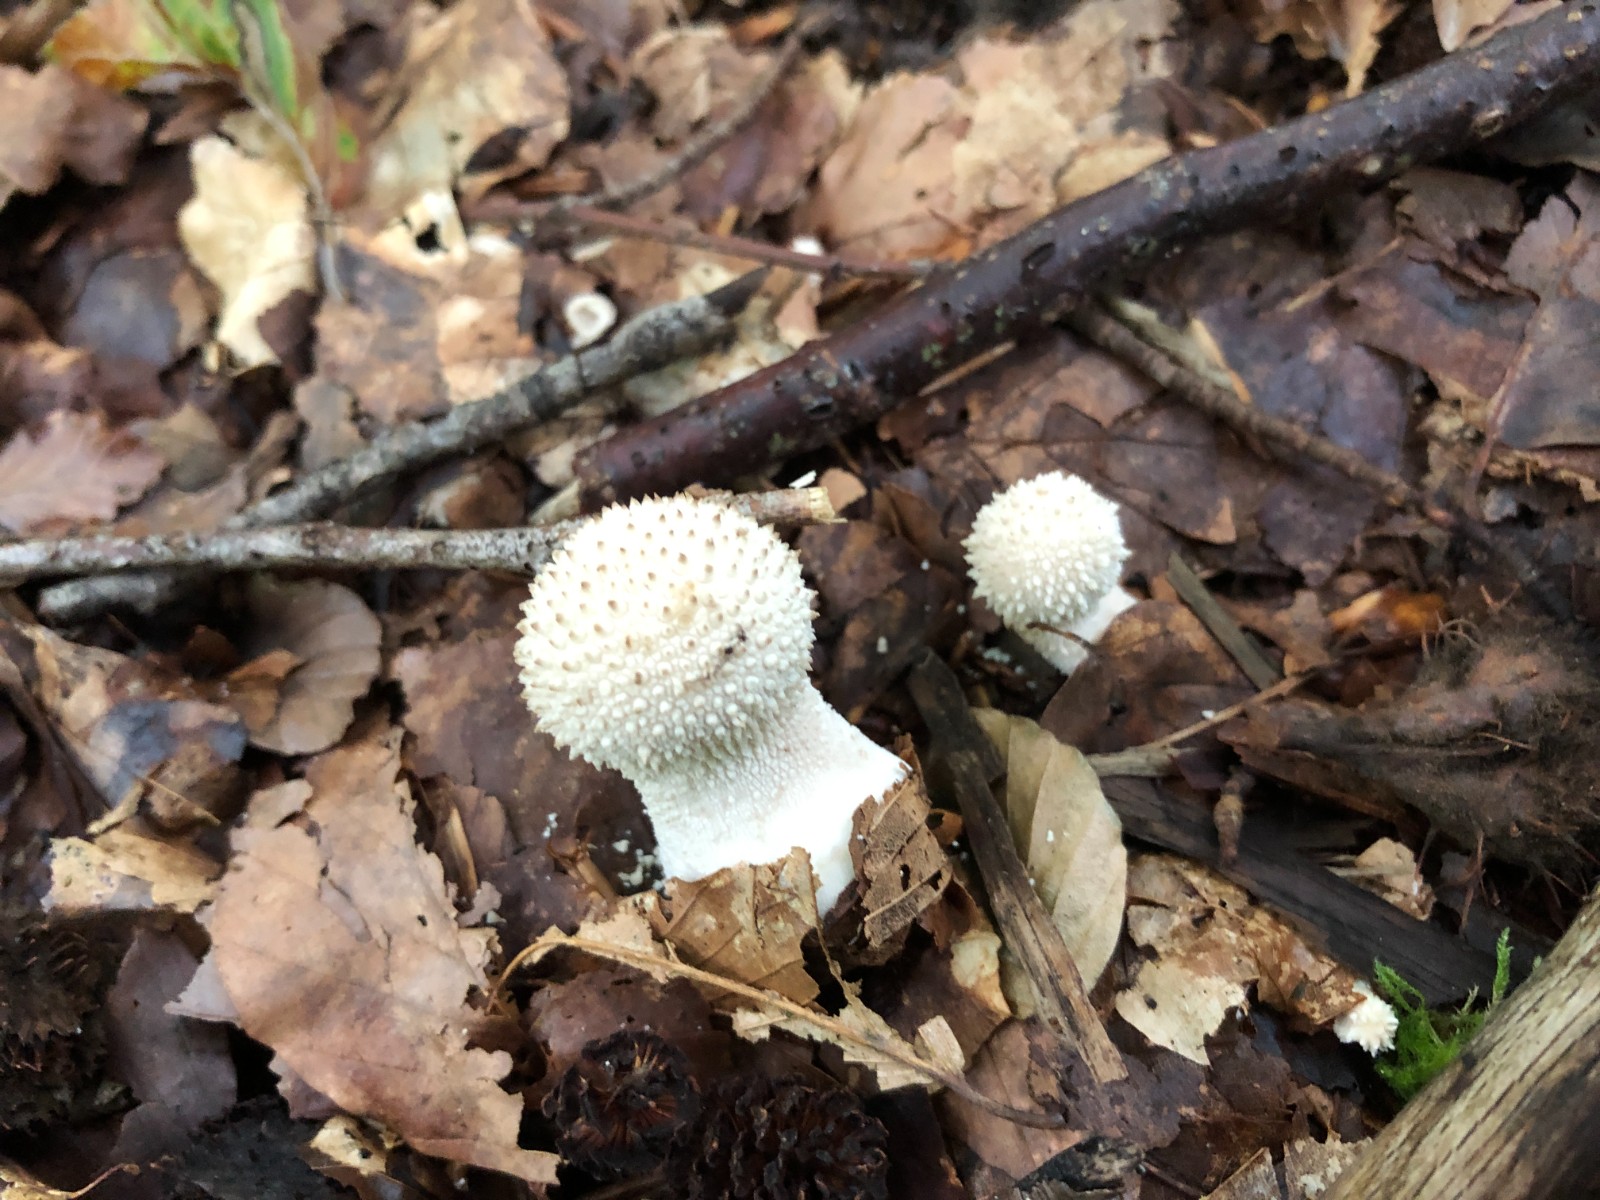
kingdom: Fungi
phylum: Basidiomycota
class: Agaricomycetes
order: Agaricales
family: Lycoperdaceae
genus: Lycoperdon
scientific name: Lycoperdon perlatum
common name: krystal-støvbold
